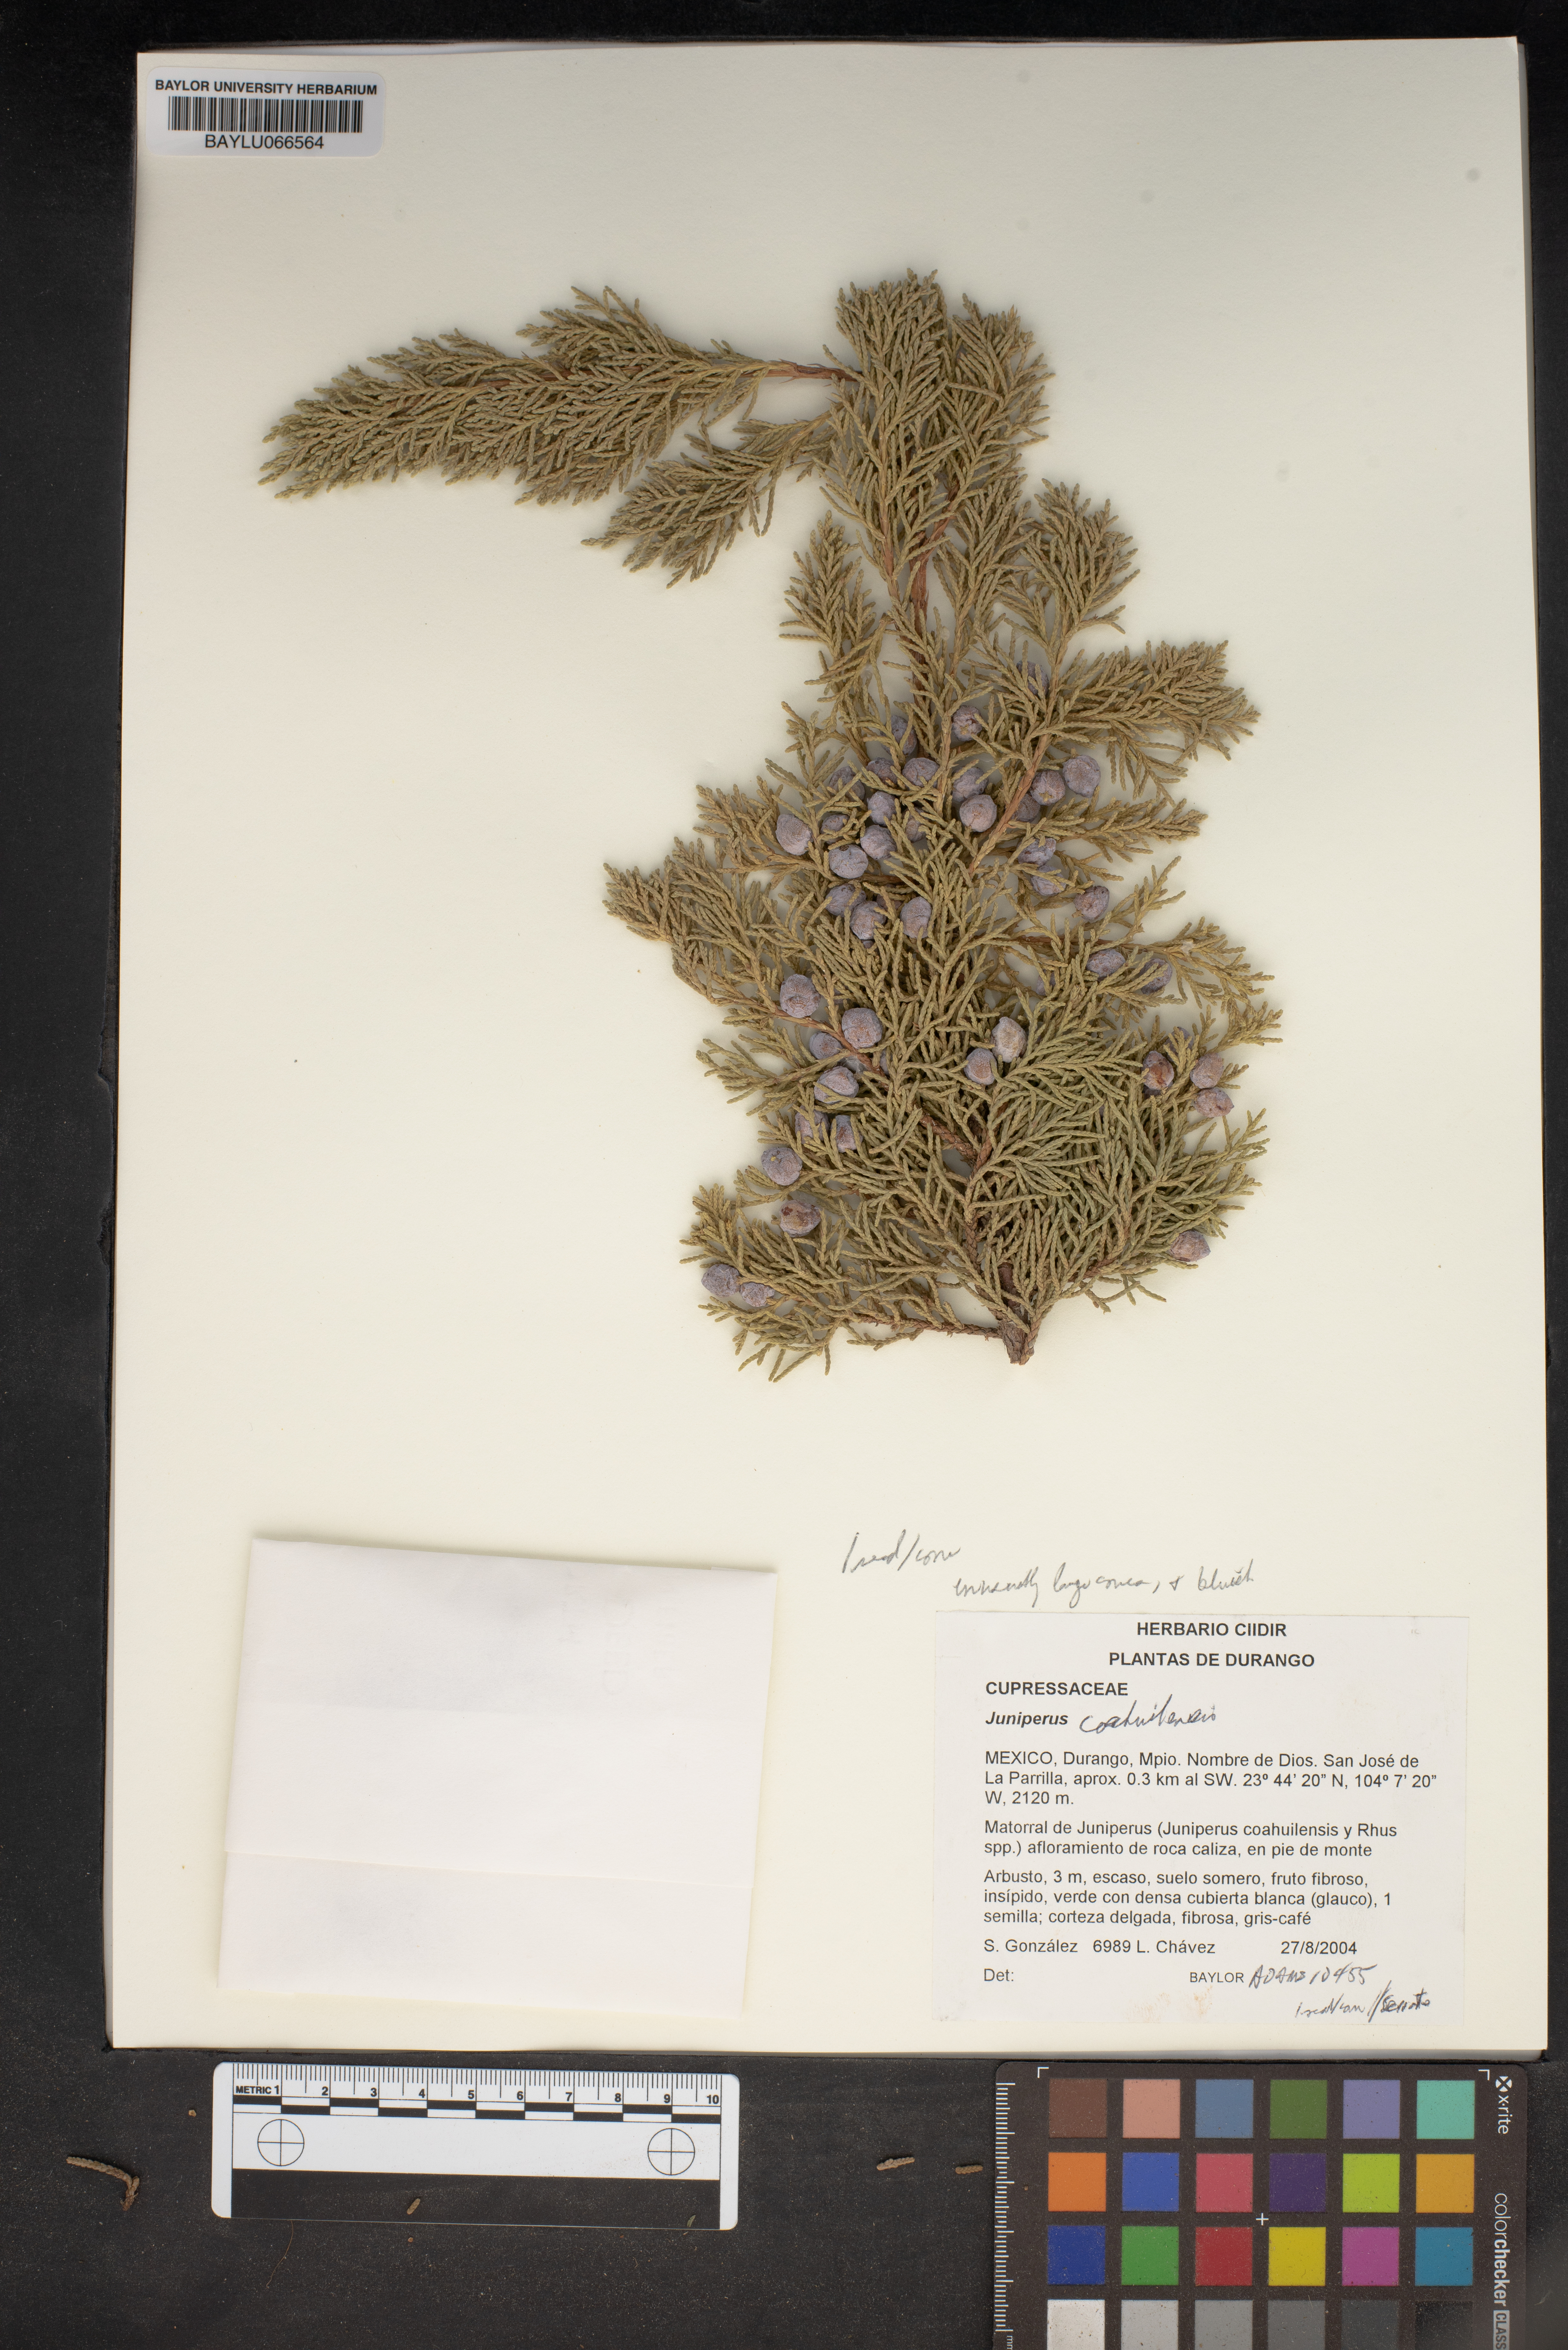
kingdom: Plantae
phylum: Tracheophyta
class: Pinopsida
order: Pinales
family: Cupressaceae
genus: Juniperus
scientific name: Juniperus coahuilensis
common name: Roseberry
